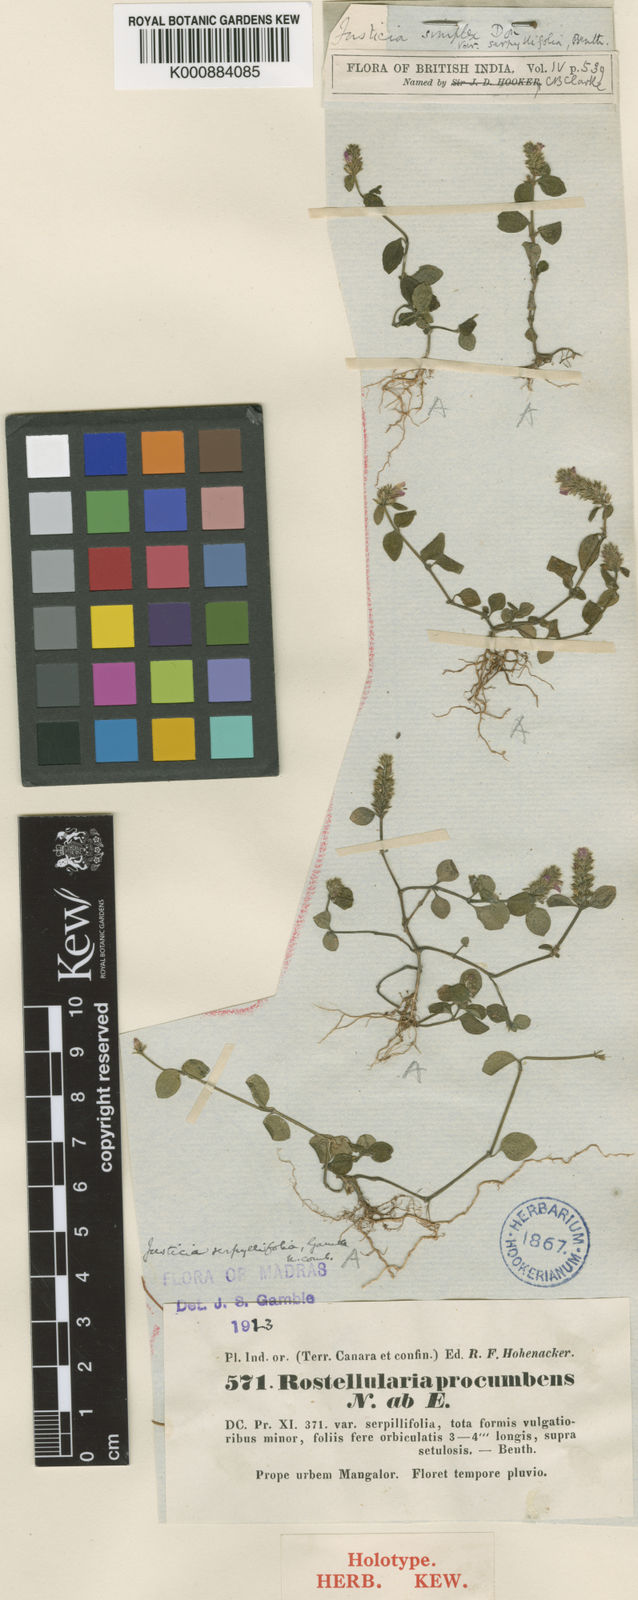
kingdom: Plantae
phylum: Tracheophyta
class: Magnoliopsida
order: Lamiales
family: Acanthaceae
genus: Rostellularia
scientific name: Rostellularia mollissima
